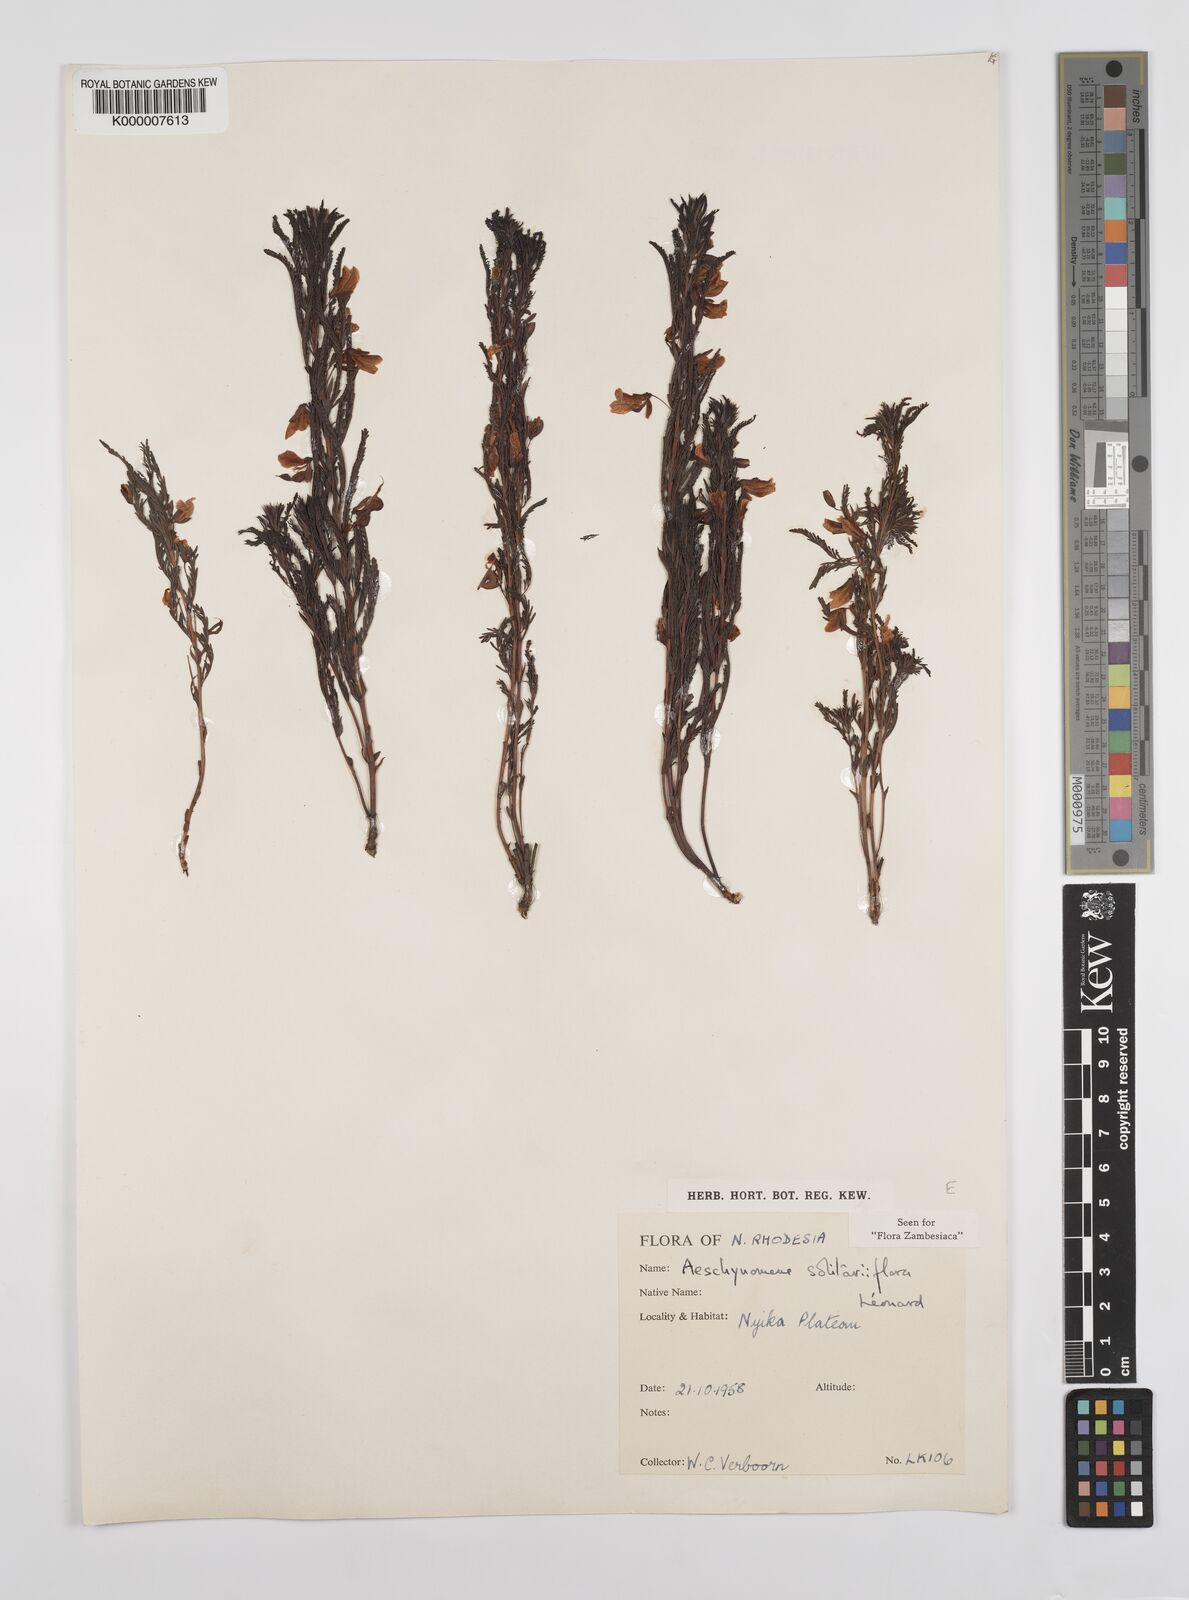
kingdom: Plantae
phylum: Tracheophyta
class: Magnoliopsida
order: Fabales
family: Fabaceae
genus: Aeschynomene
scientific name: Aeschynomene solitariiflora
